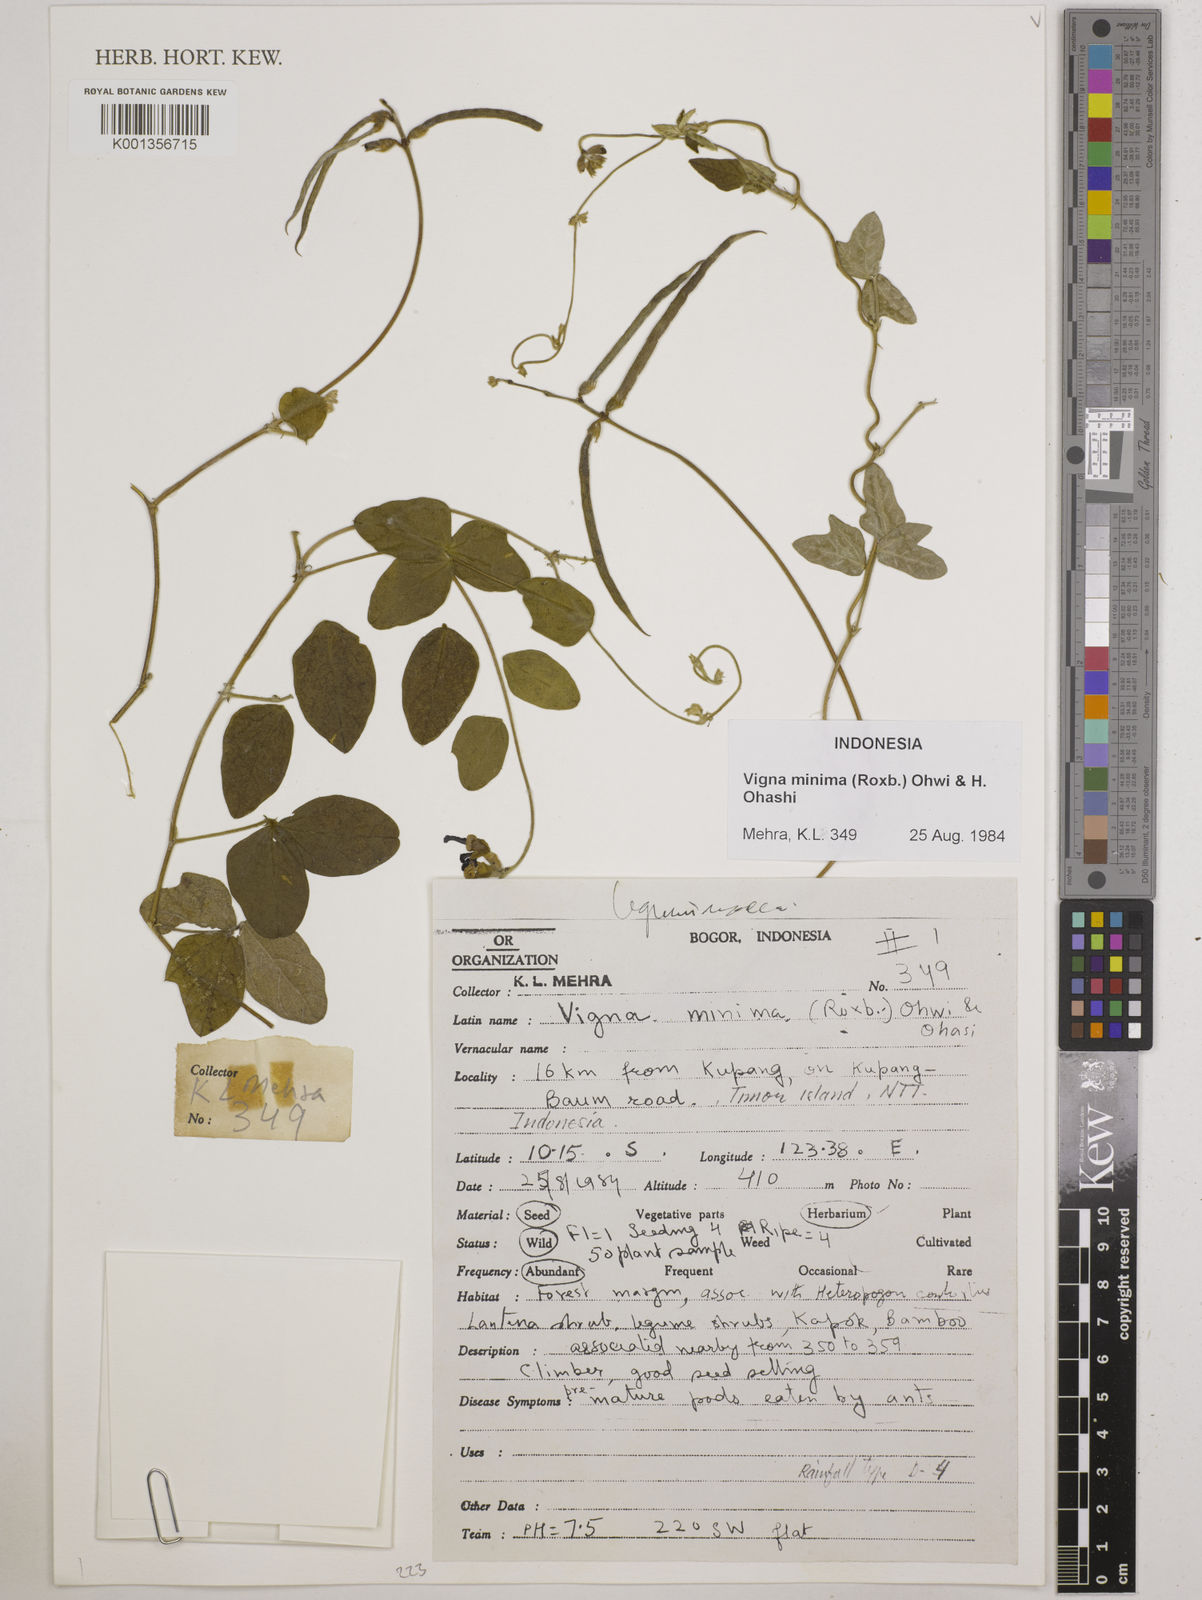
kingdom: Plantae
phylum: Tracheophyta
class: Magnoliopsida
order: Fabales
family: Fabaceae
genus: Vigna
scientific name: Vigna minima
